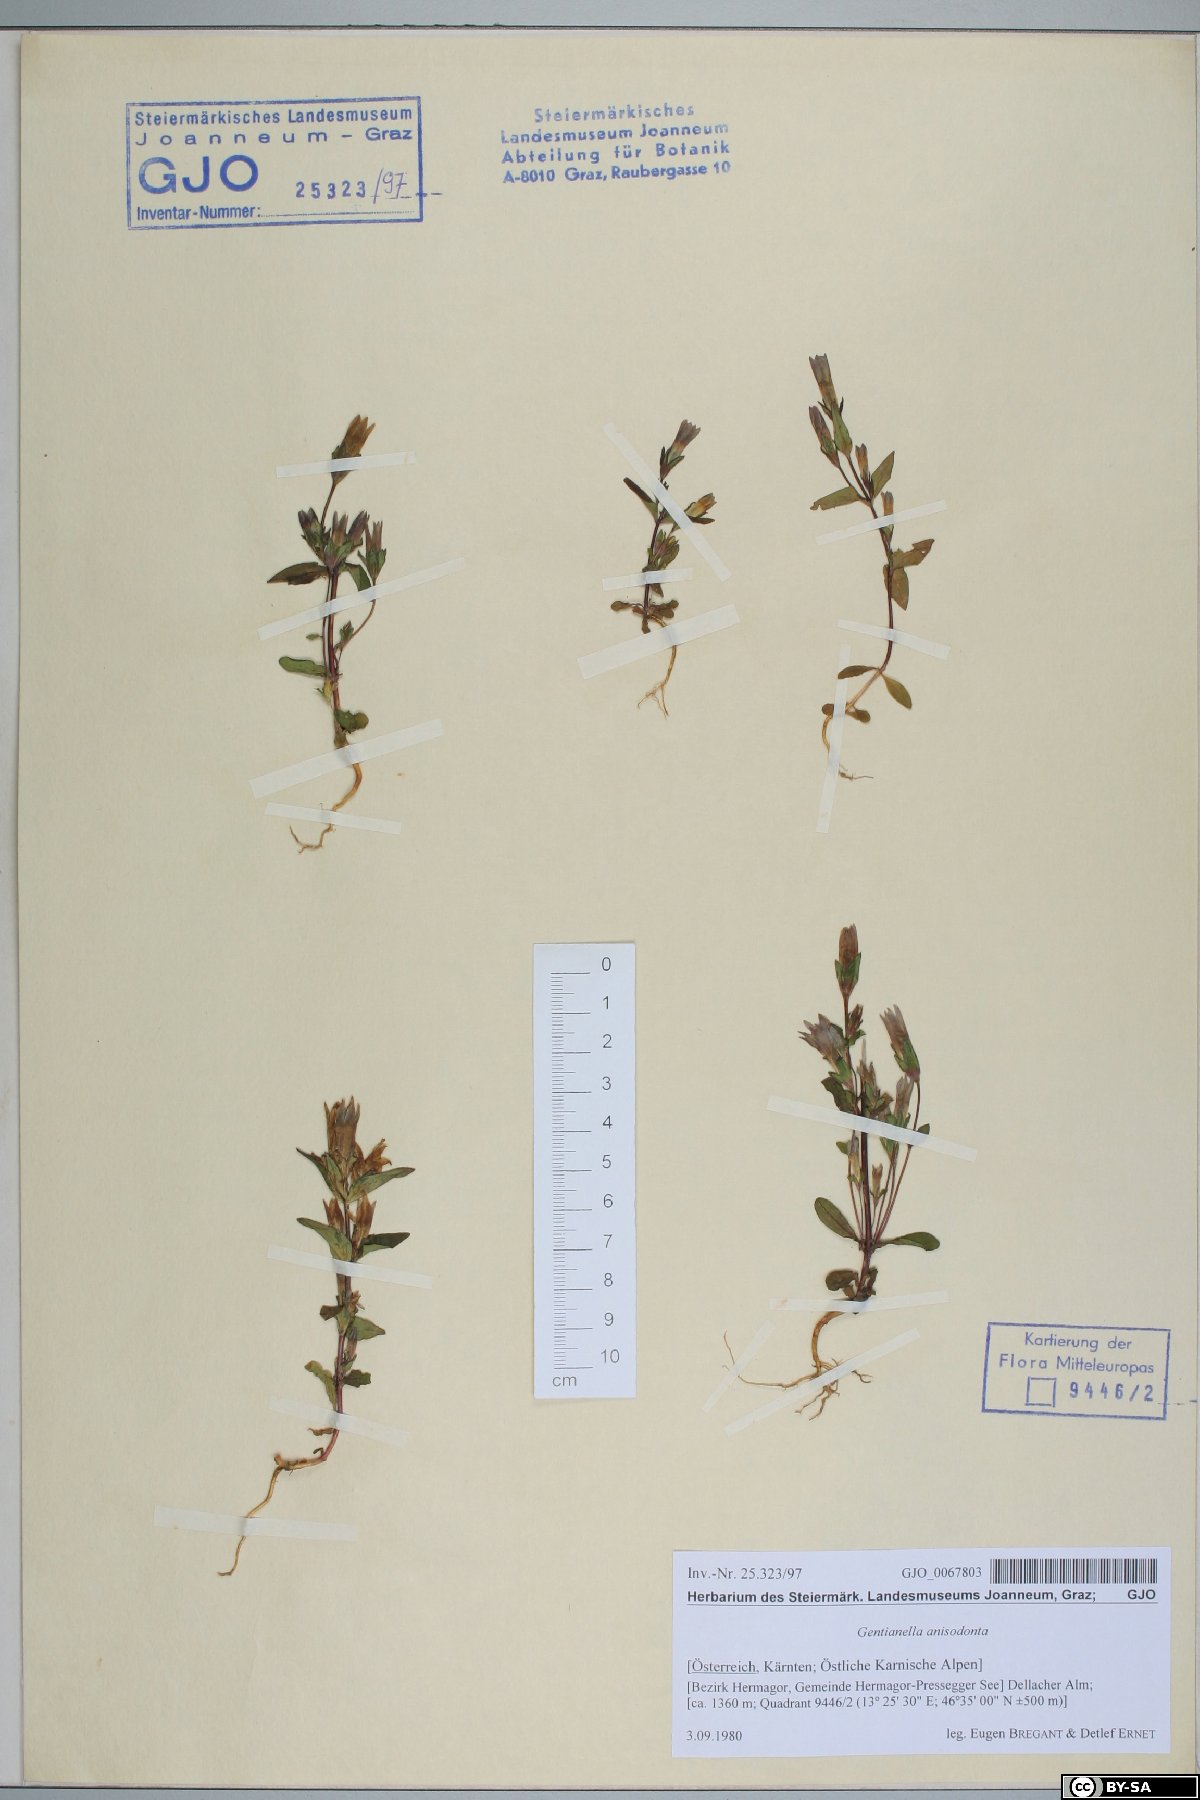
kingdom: Plantae
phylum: Tracheophyta
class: Magnoliopsida
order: Gentianales
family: Gentianaceae
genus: Gentianella
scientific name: Gentianella anisodonta
